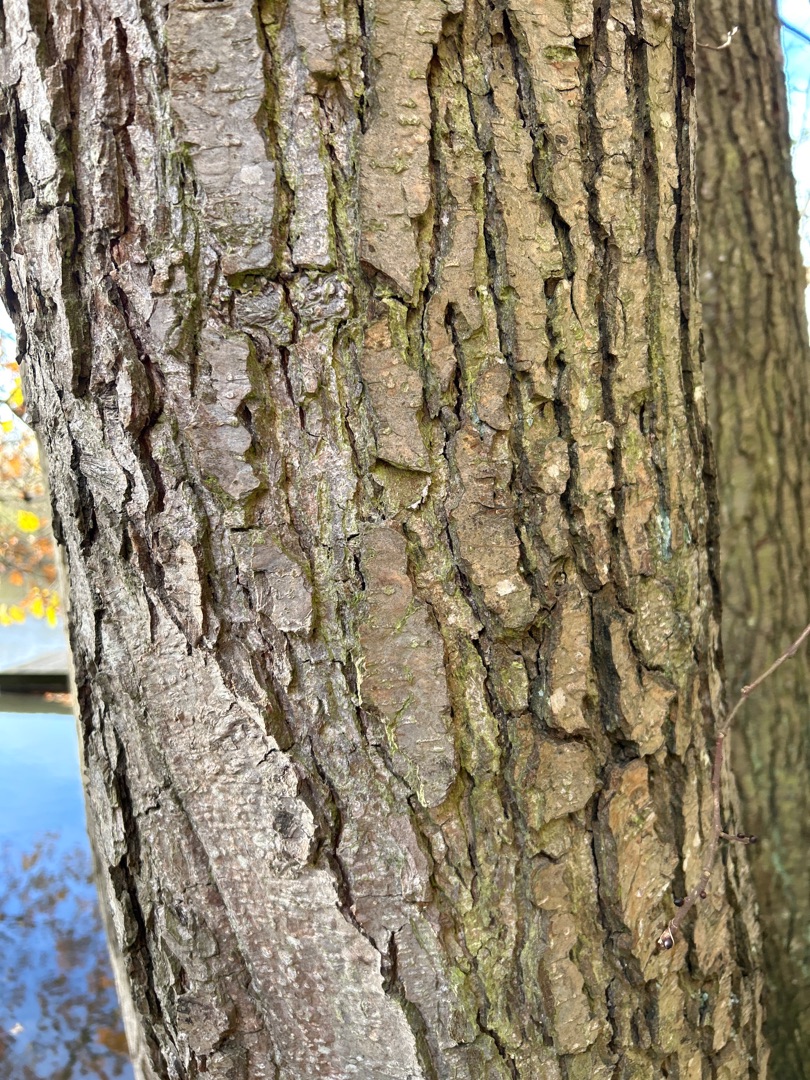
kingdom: Plantae
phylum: Tracheophyta
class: Magnoliopsida
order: Rosales
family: Ulmaceae
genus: Ulmus
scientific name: Ulmus glabra
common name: Skov-elm/storbladet elm
